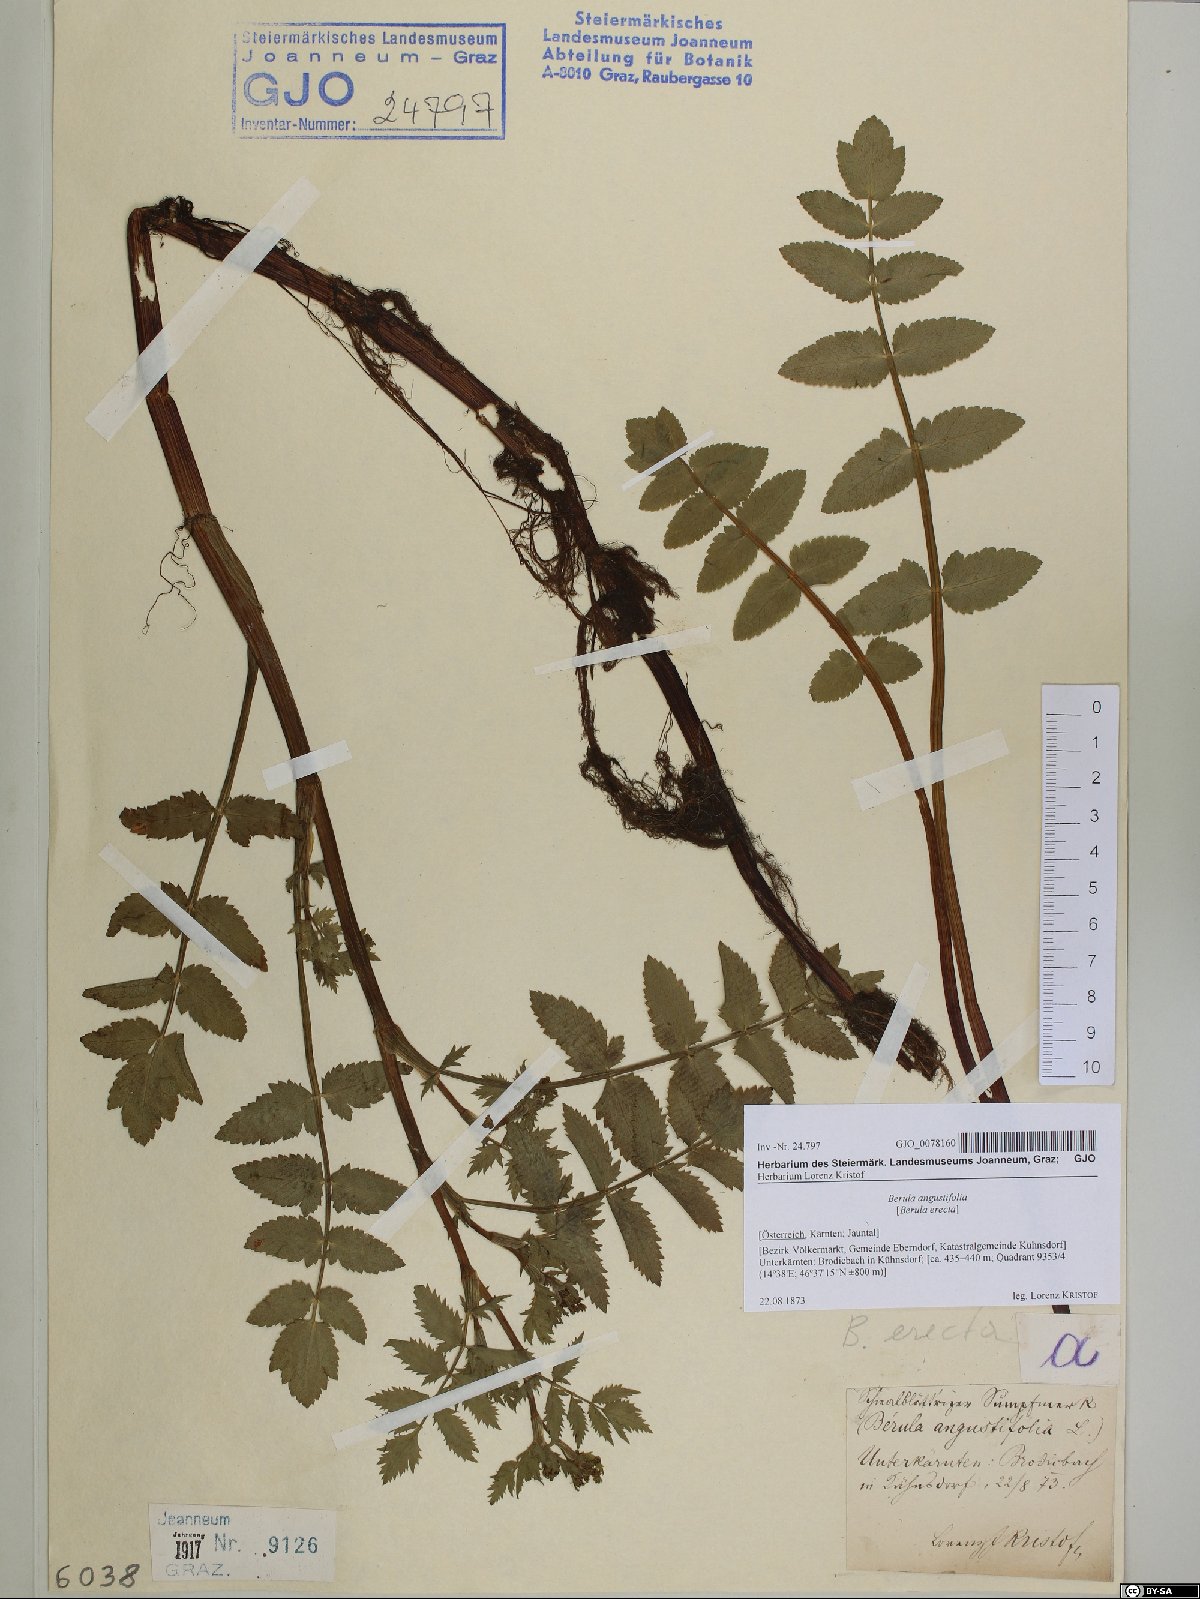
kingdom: Plantae
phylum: Tracheophyta
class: Magnoliopsida
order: Apiales
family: Apiaceae
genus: Berula
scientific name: Berula erecta
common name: Lesser water-parsnip
